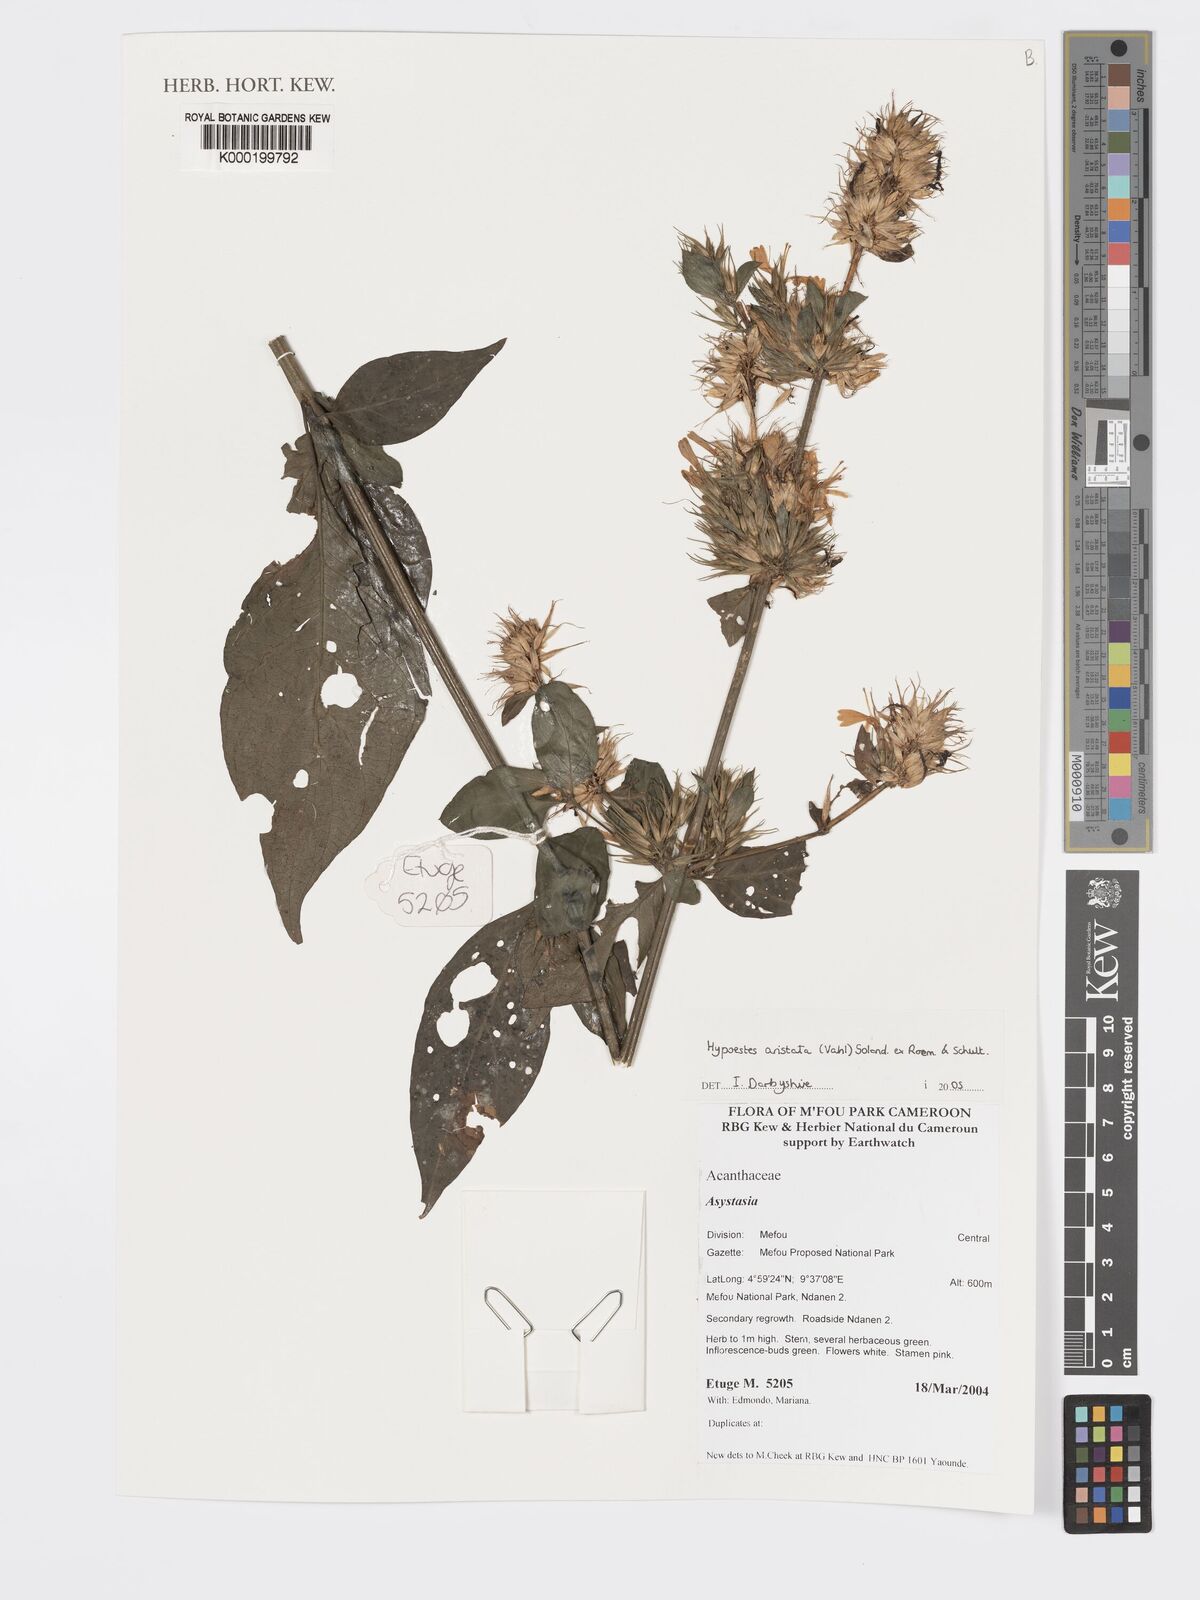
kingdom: Plantae
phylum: Tracheophyta
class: Magnoliopsida
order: Lamiales
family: Acanthaceae
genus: Hypoestes
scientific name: Hypoestes aristata
